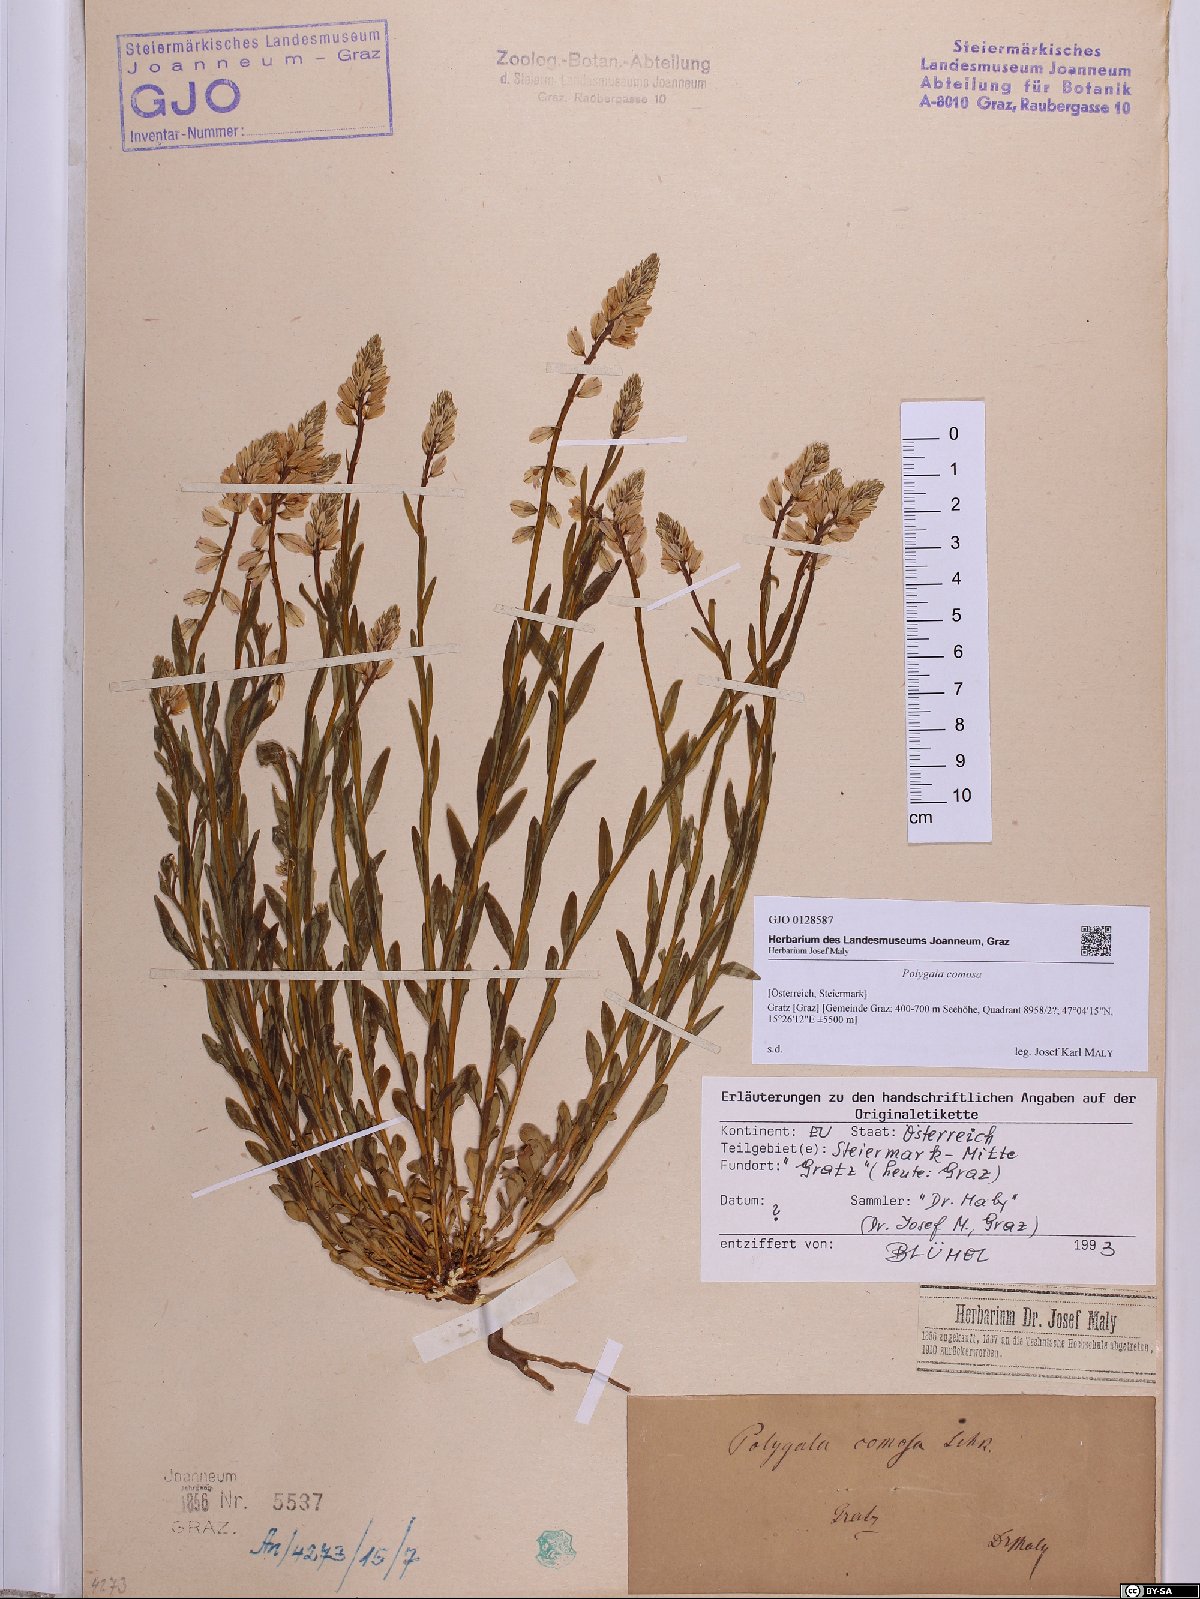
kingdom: Plantae
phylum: Tracheophyta
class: Magnoliopsida
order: Fabales
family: Polygalaceae
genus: Polygala
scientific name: Polygala comosa
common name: Tufted milkwort
